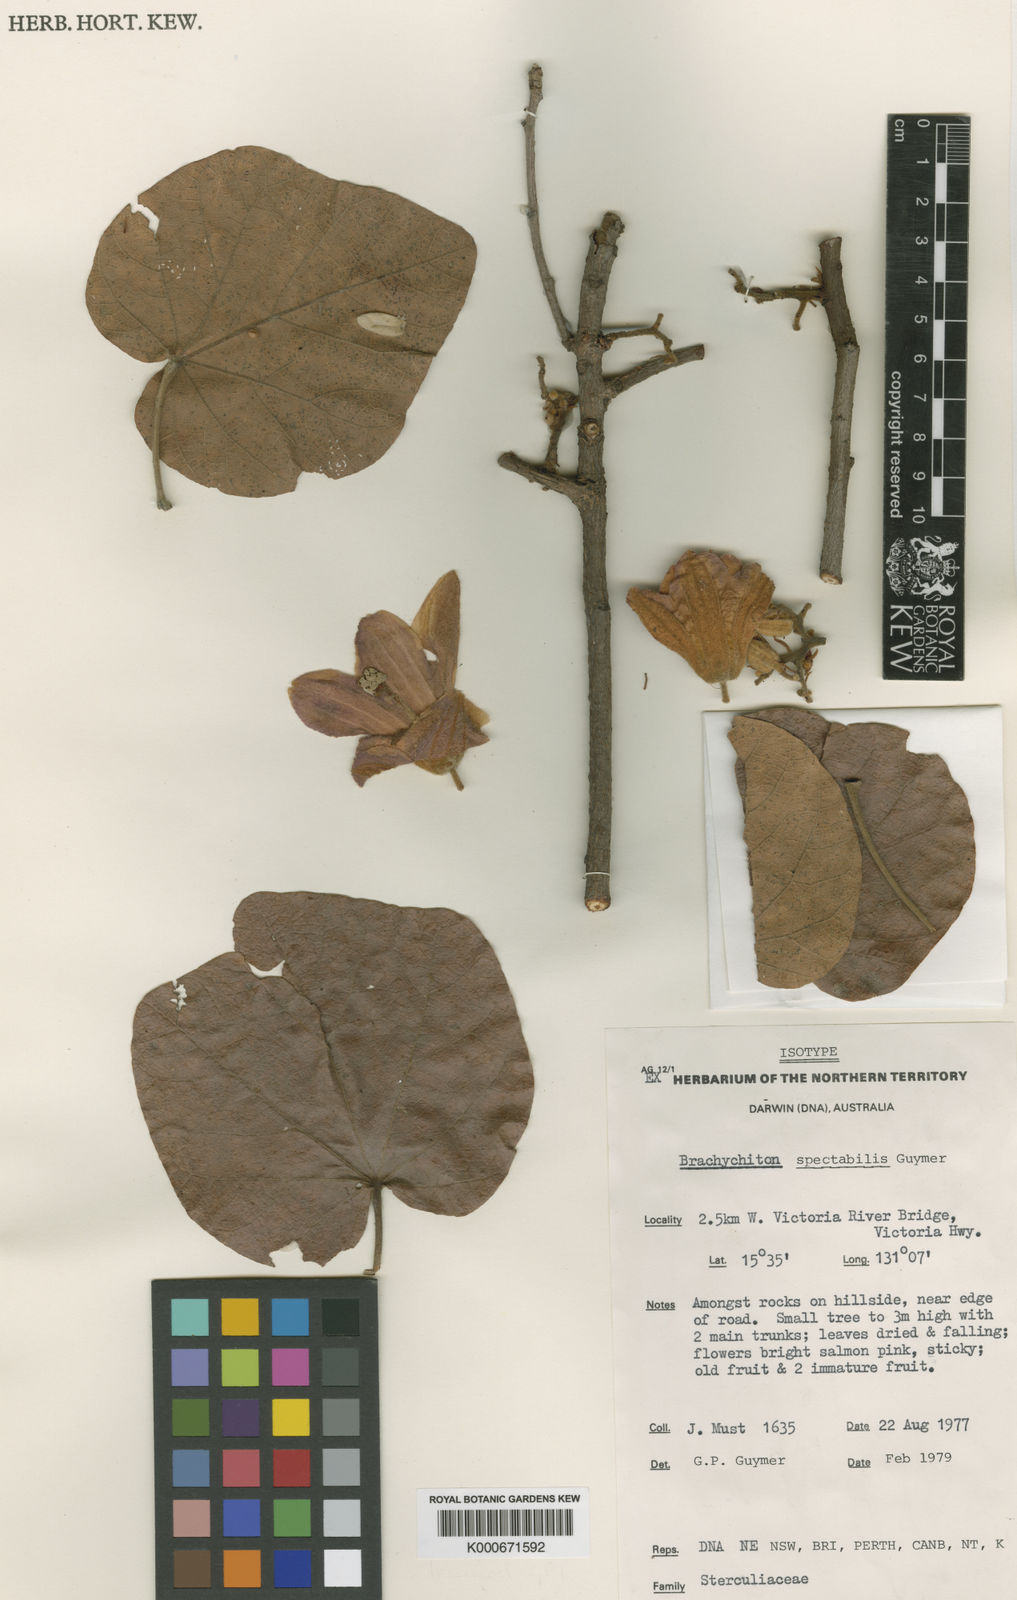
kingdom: Plantae
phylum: Tracheophyta
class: Magnoliopsida
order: Malvales
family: Malvaceae
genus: Brachychiton
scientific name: Brachychiton spectabilis
